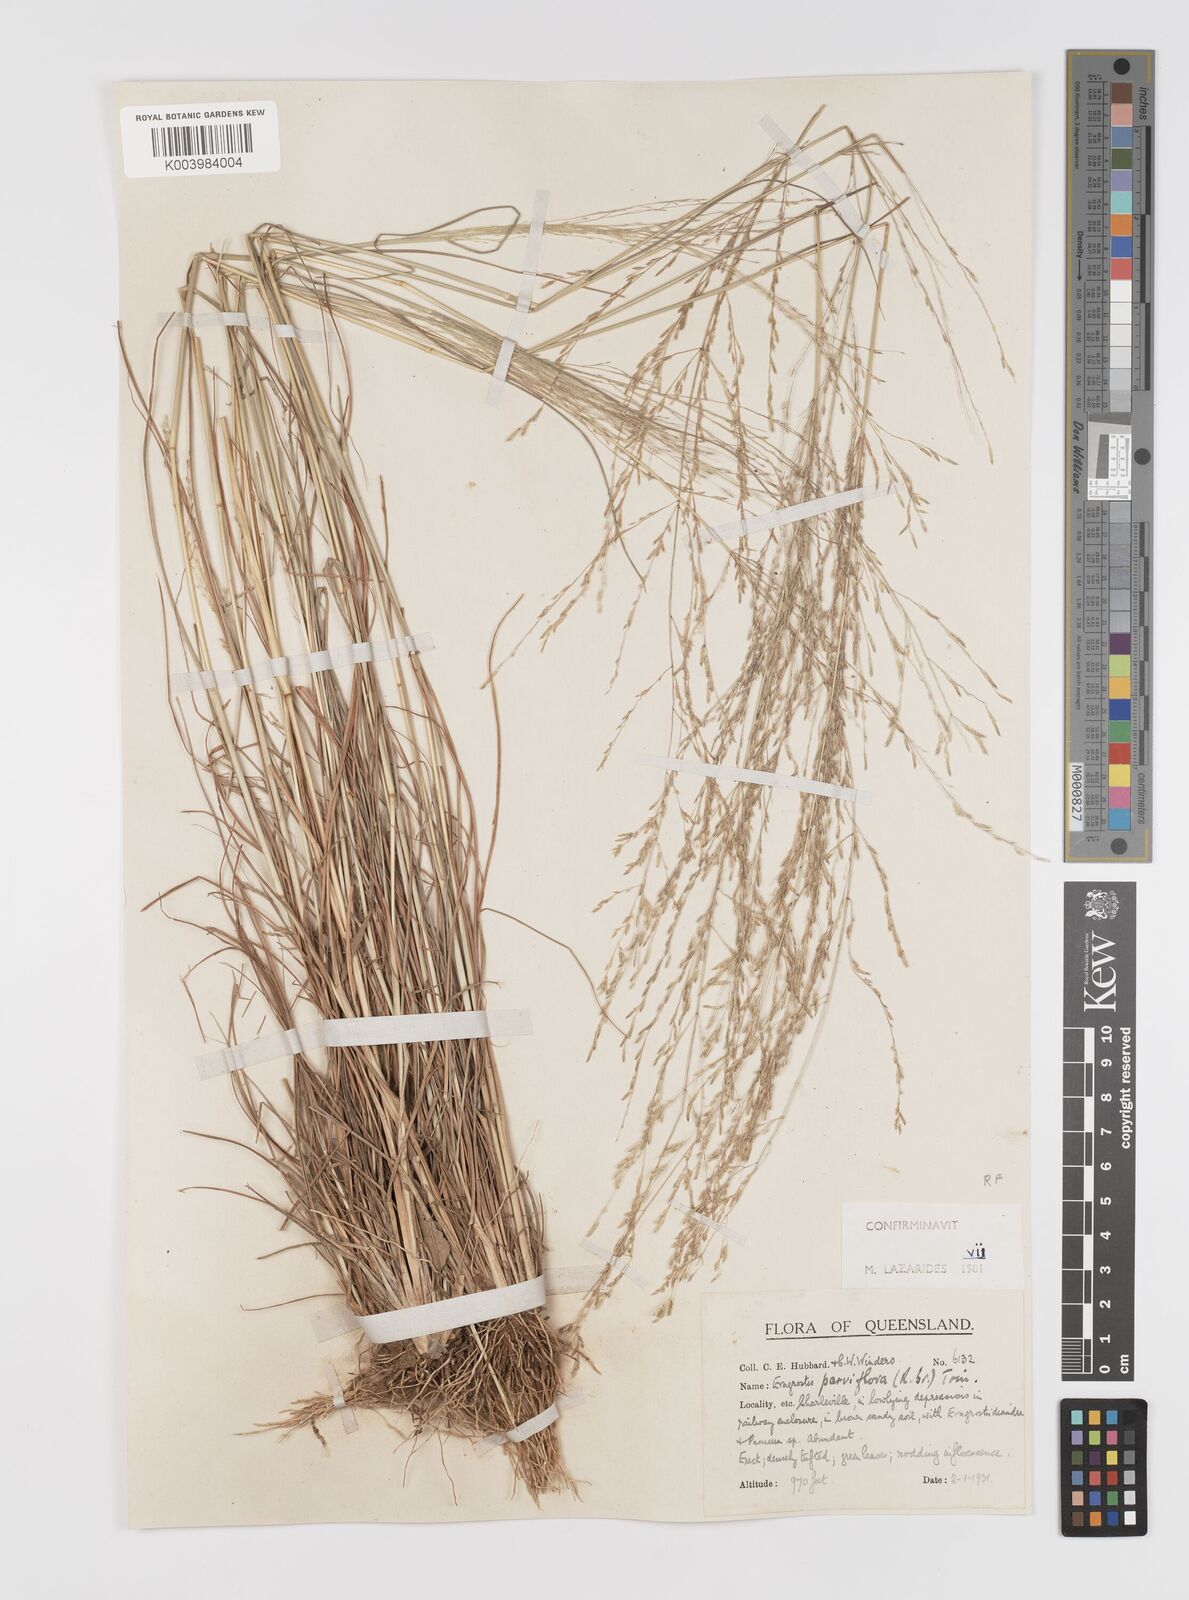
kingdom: Plantae
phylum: Tracheophyta
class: Liliopsida
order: Poales
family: Poaceae
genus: Eragrostis
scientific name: Eragrostis parviflora
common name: Weeping love-grass
